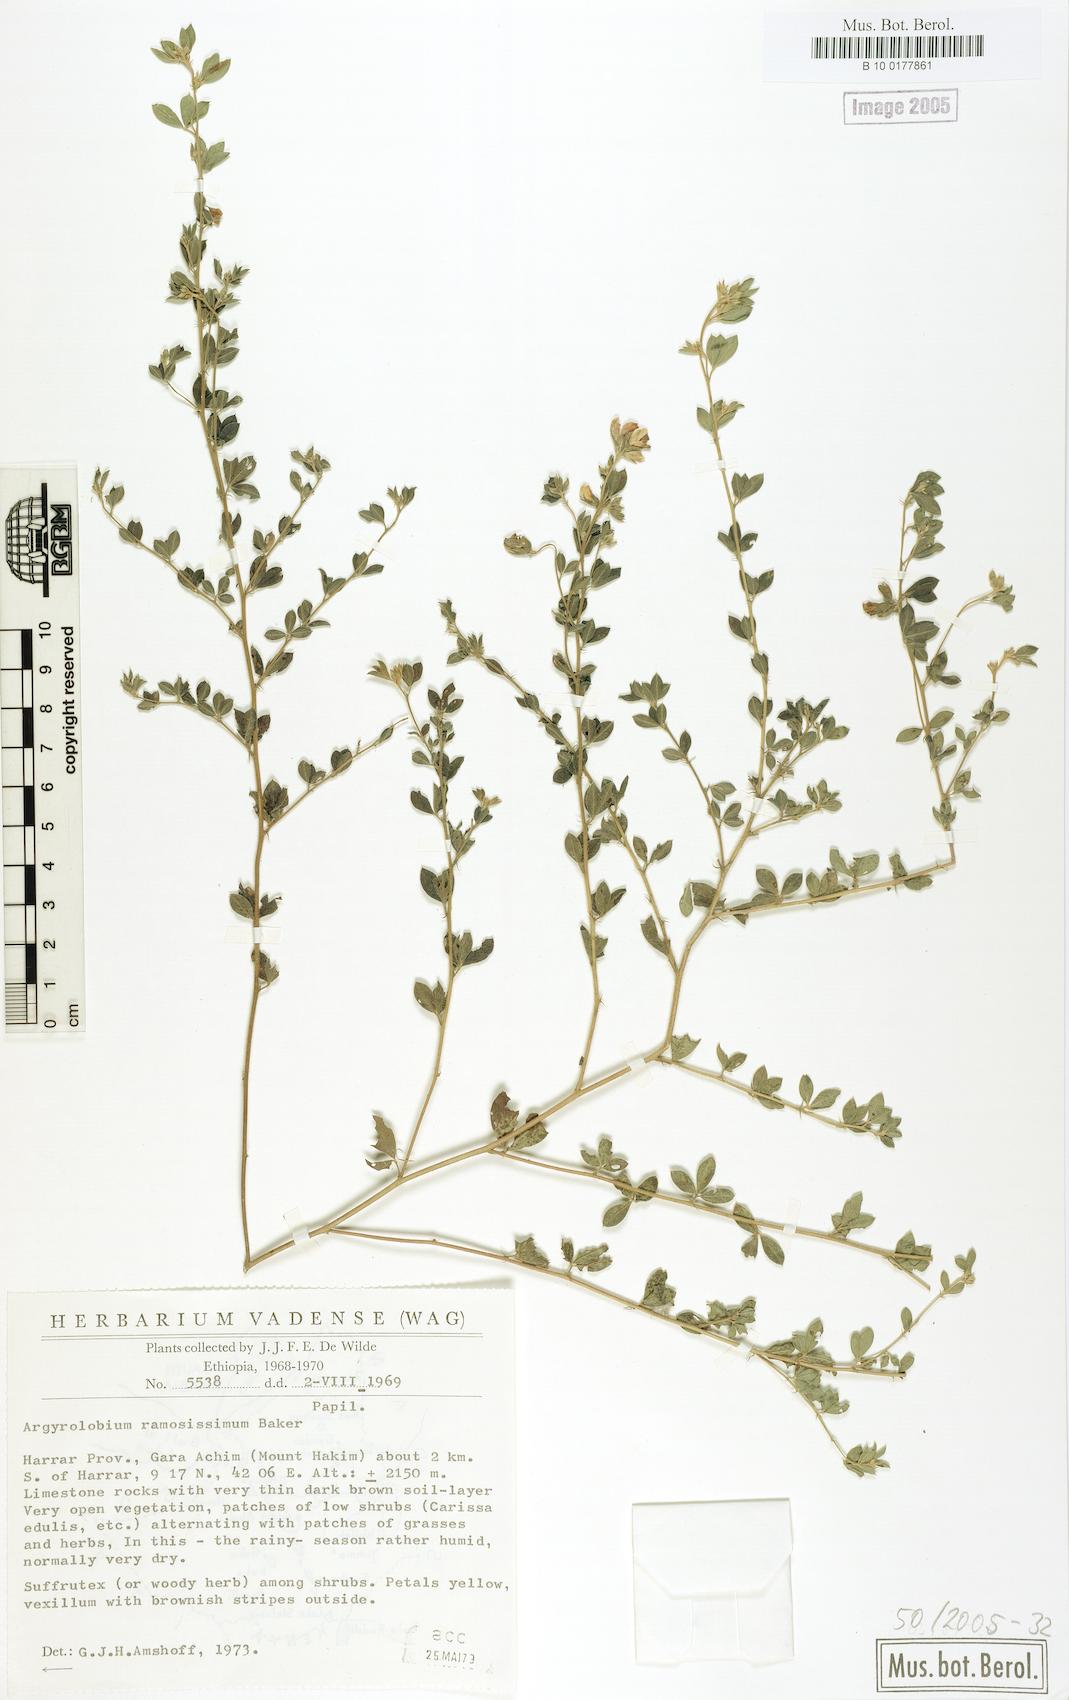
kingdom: Plantae
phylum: Tracheophyta
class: Magnoliopsida
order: Fabales
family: Fabaceae
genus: Argyrolobium
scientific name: Argyrolobium ramosissimum
